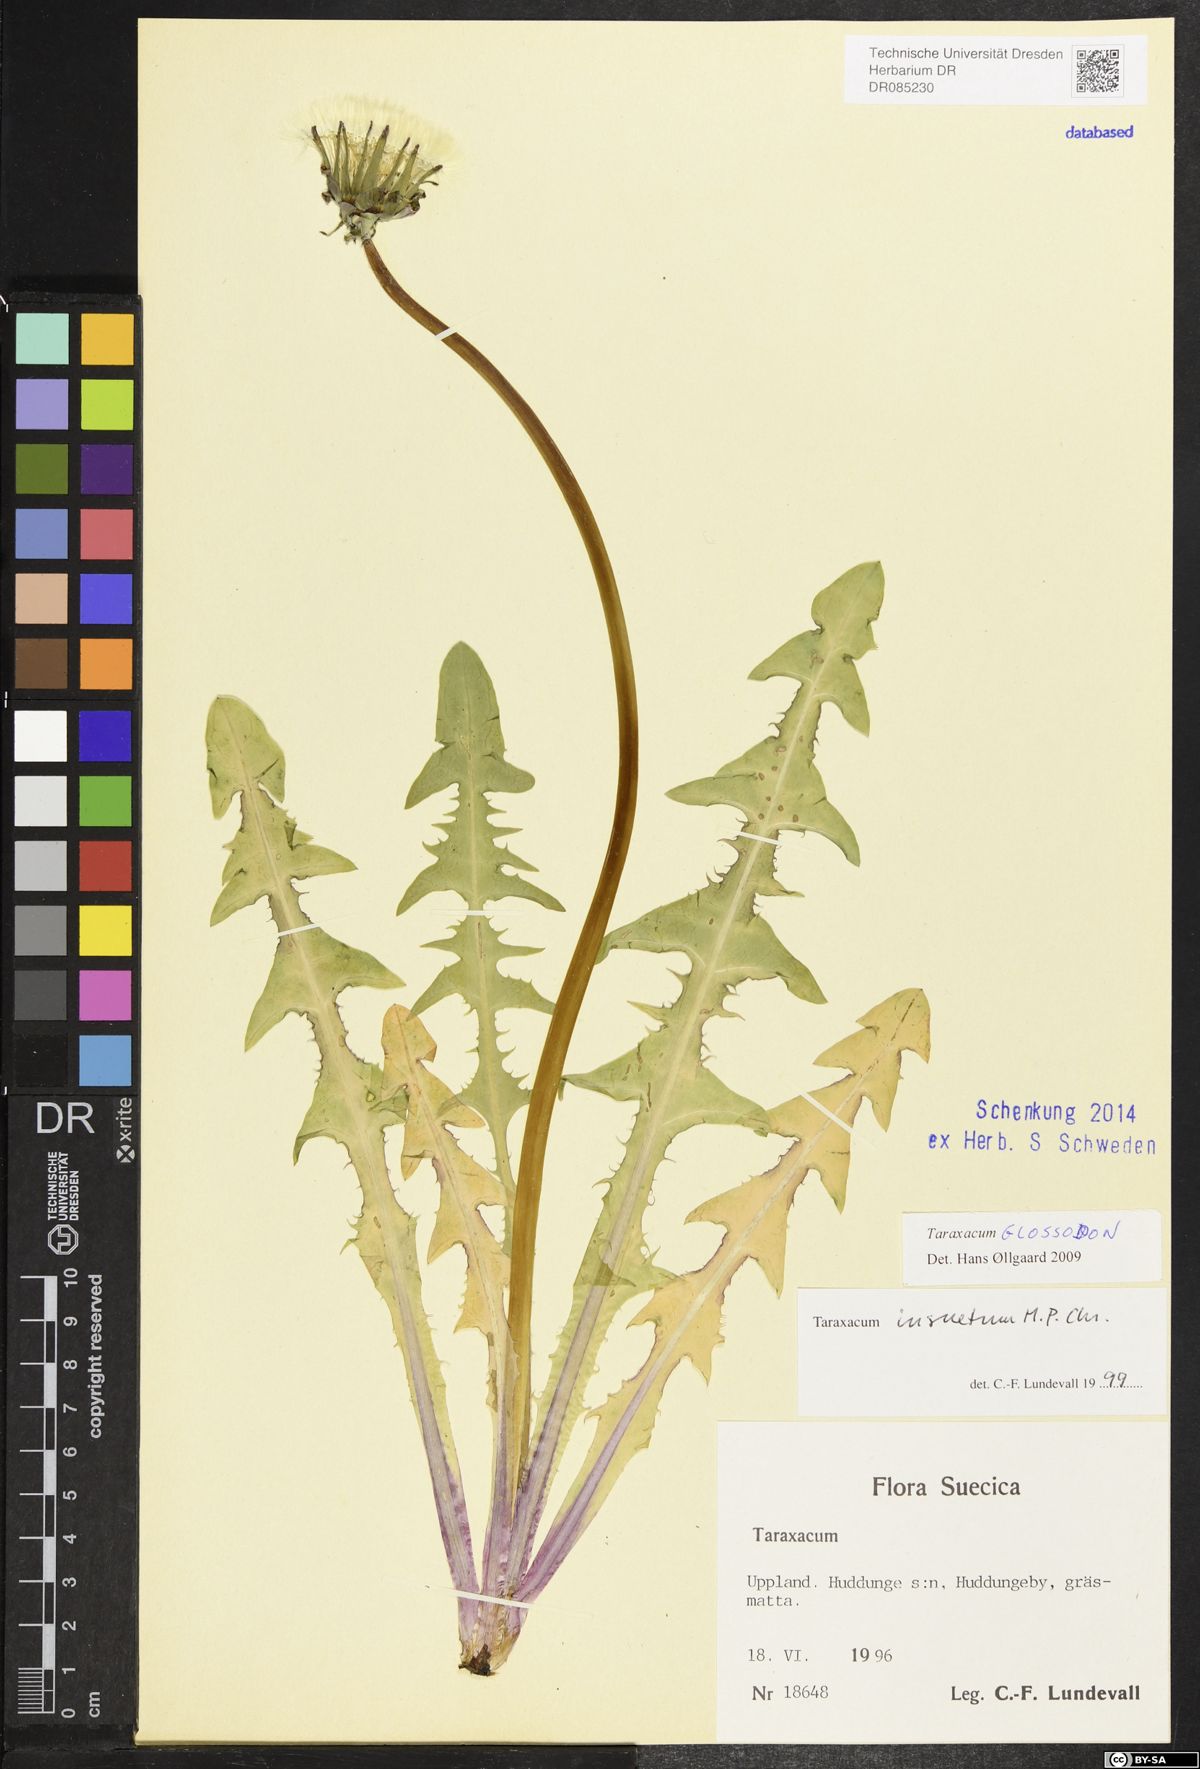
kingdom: Plantae
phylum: Tracheophyta
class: Magnoliopsida
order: Asterales
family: Asteraceae
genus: Taraxacum
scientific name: Taraxacum glossodon
